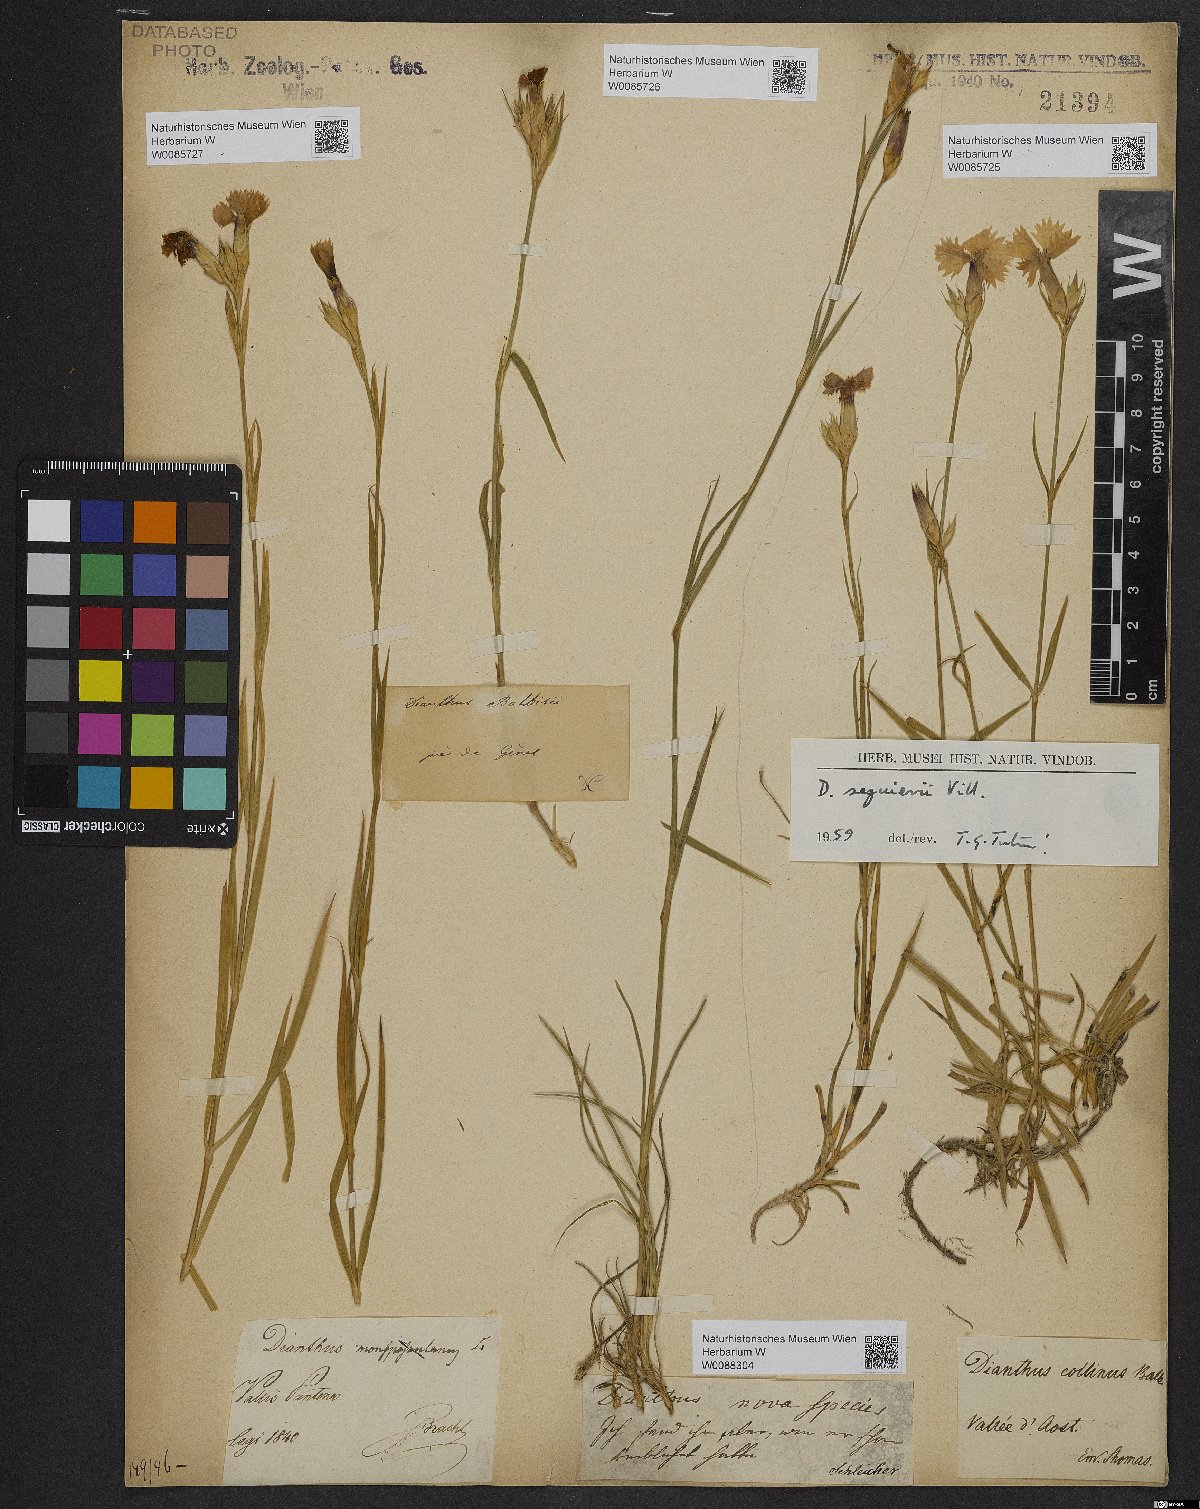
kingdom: Plantae
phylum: Tracheophyta
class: Magnoliopsida
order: Caryophyllales
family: Caryophyllaceae
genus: Dianthus
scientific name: Dianthus seguieri
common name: Ragged pink
